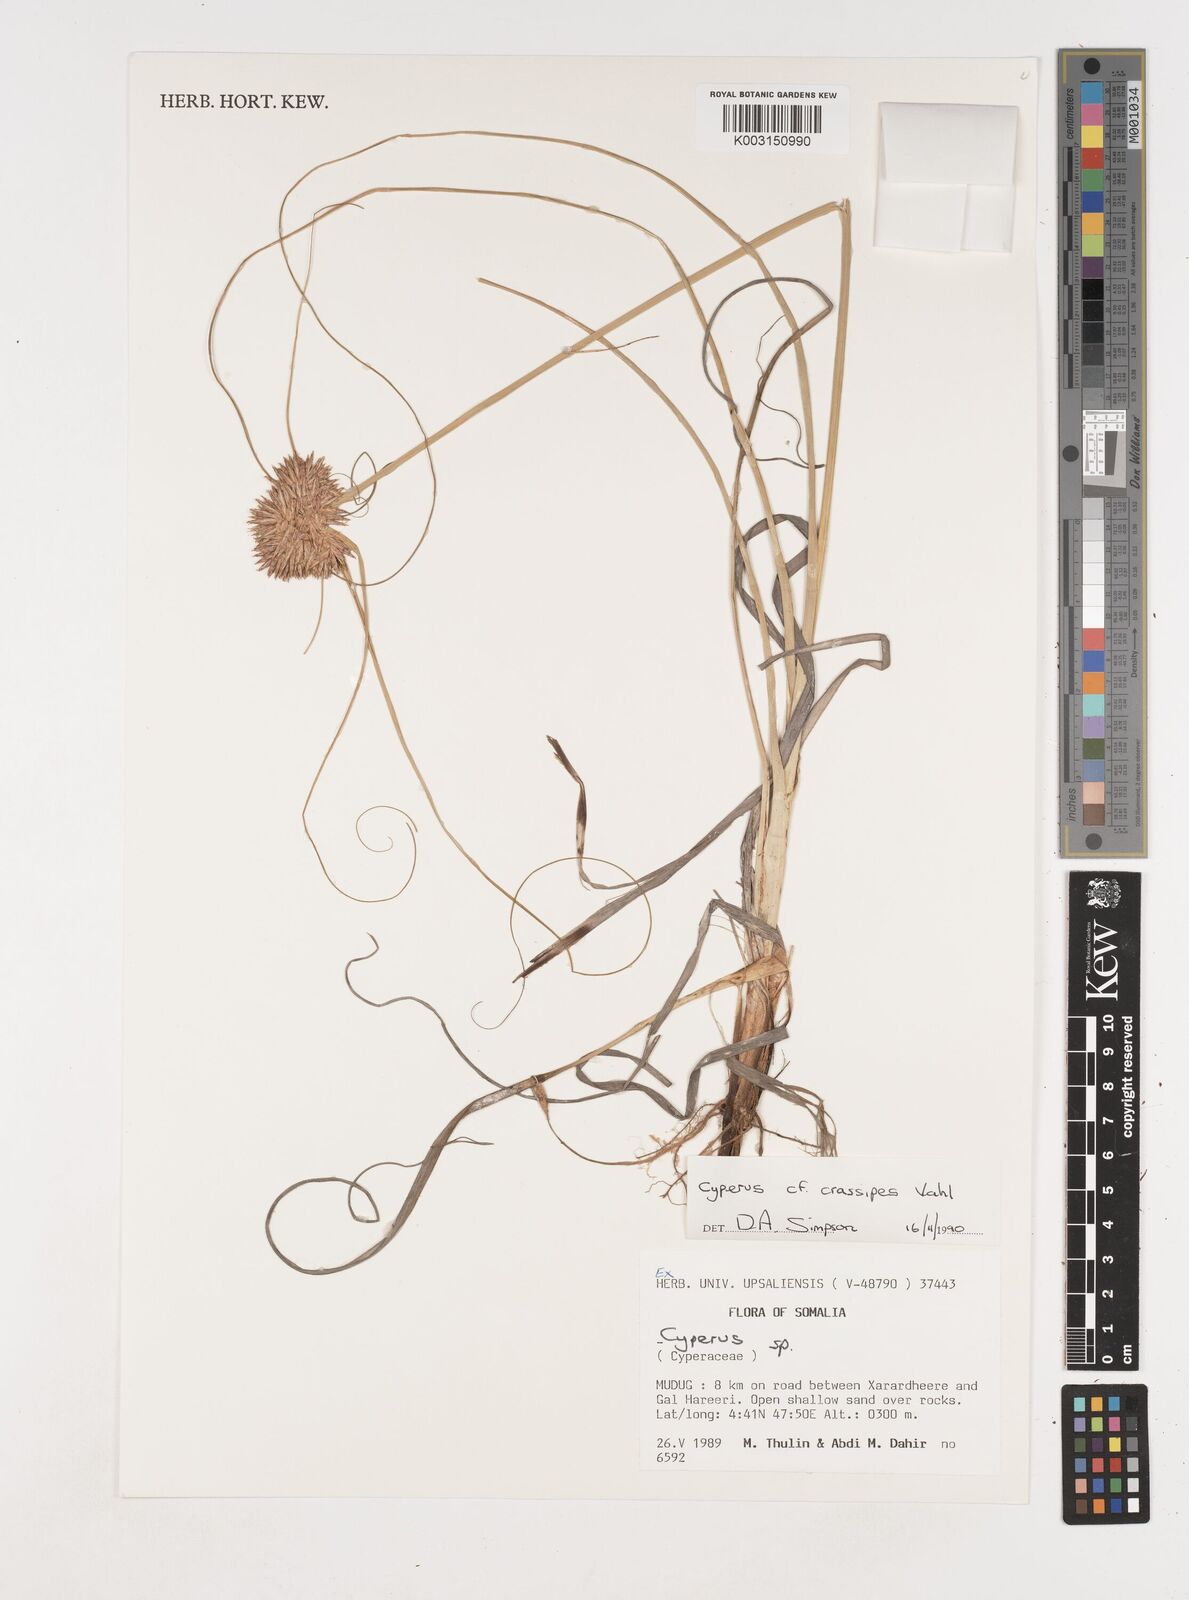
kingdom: Plantae
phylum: Tracheophyta
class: Liliopsida
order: Poales
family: Cyperaceae
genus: Cyperus
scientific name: Cyperus crassipes
